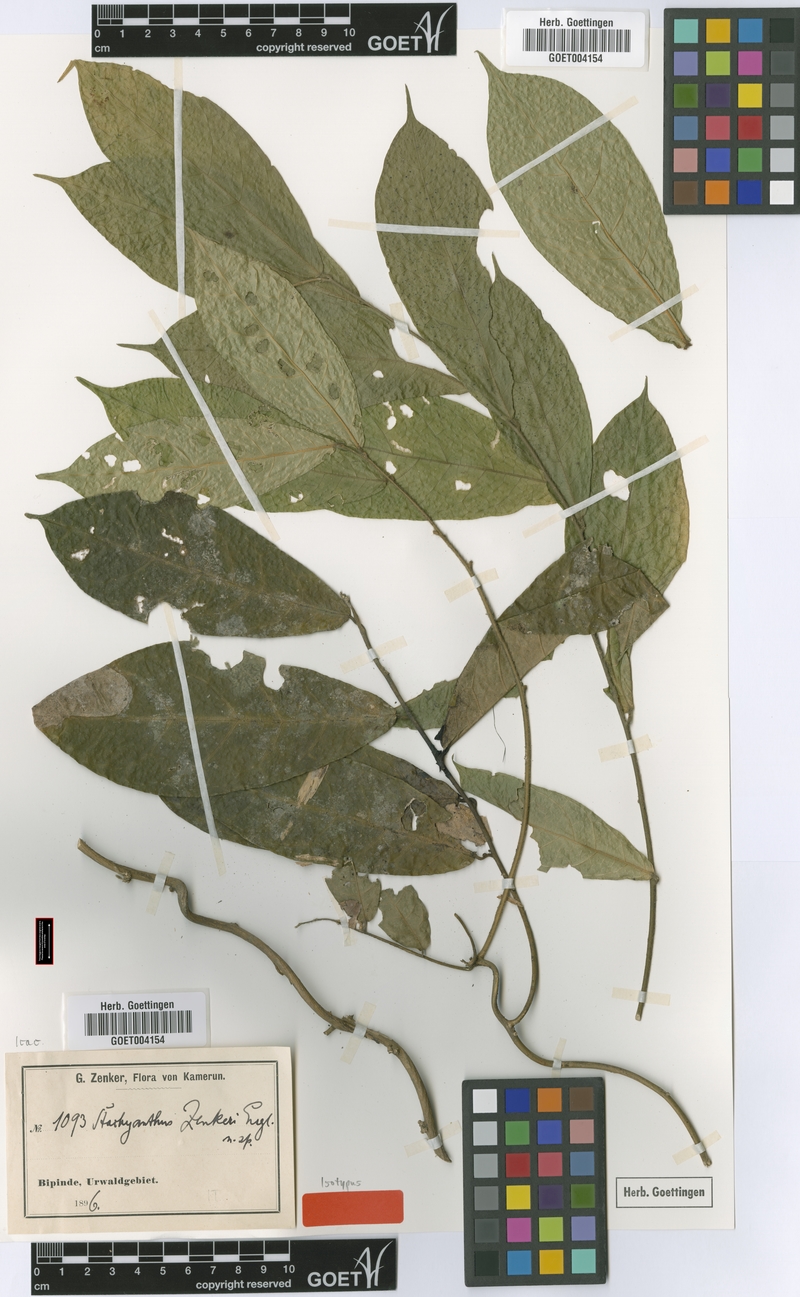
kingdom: Plantae
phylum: Tracheophyta
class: Magnoliopsida
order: Icacinales
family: Icacinaceae
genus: Stachyanthus
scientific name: Stachyanthus zenkeri
